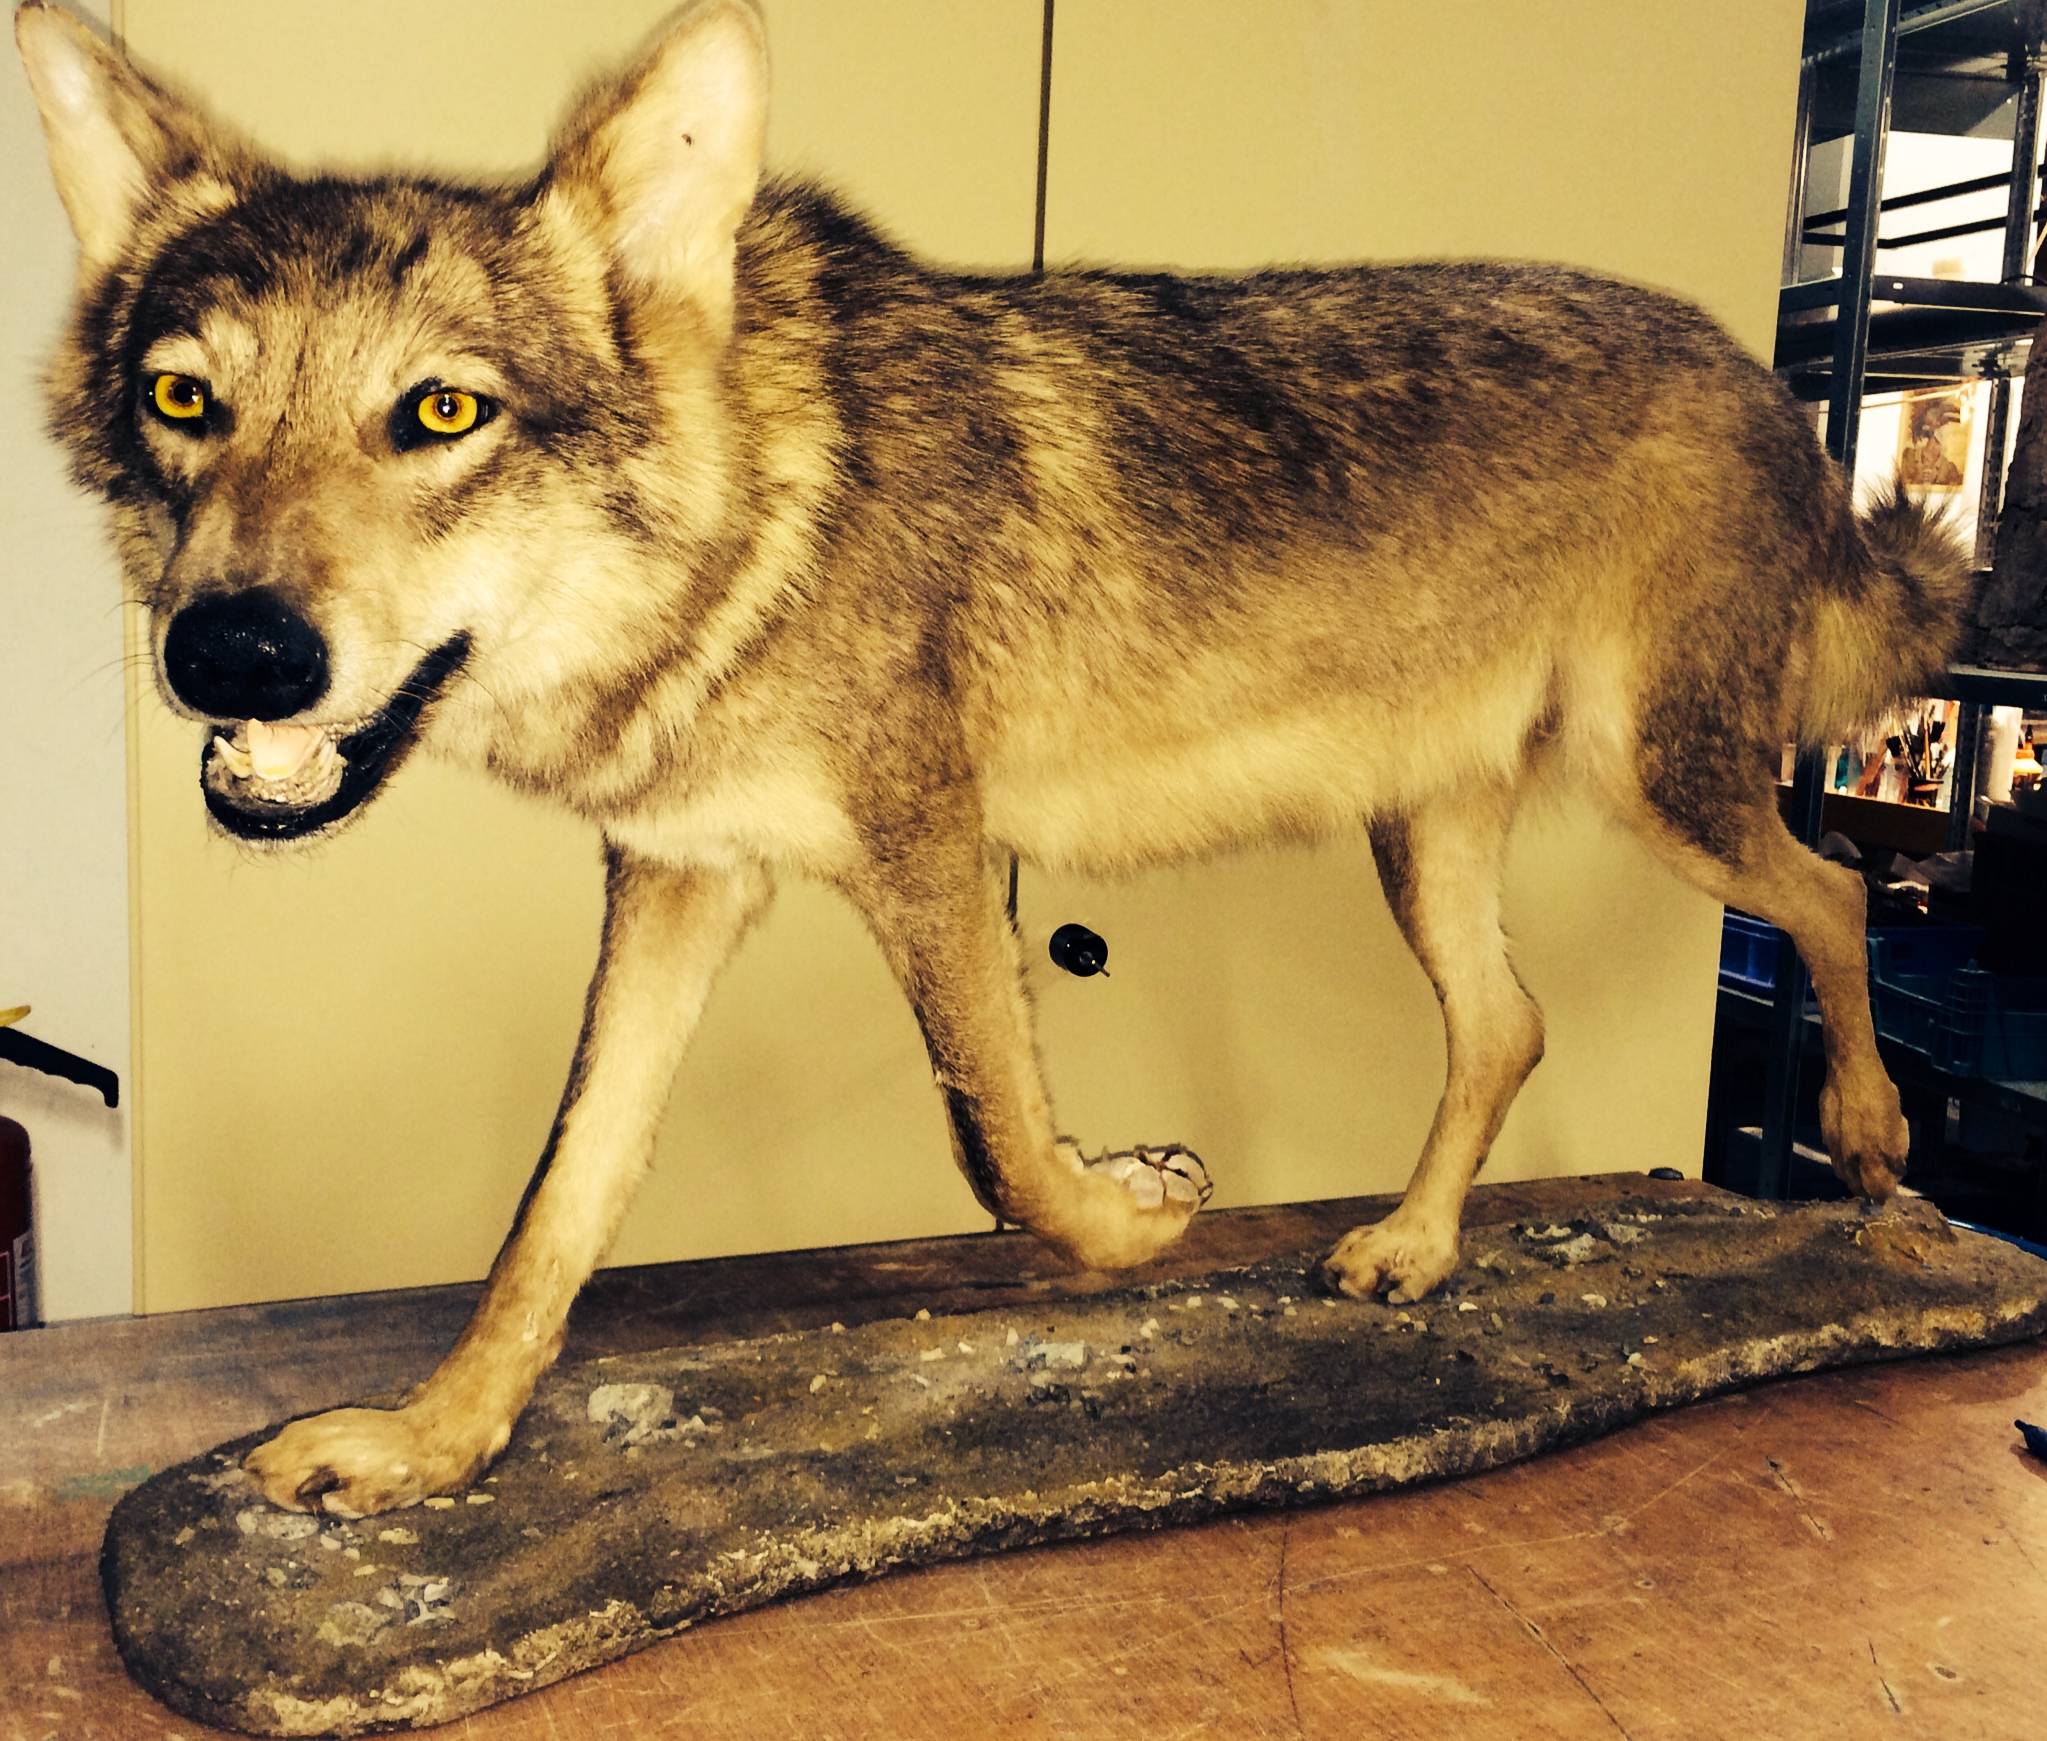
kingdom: Animalia
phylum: Chordata
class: Mammalia
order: Carnivora
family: Canidae
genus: Canis
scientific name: Canis lupus
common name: Gray wolf
